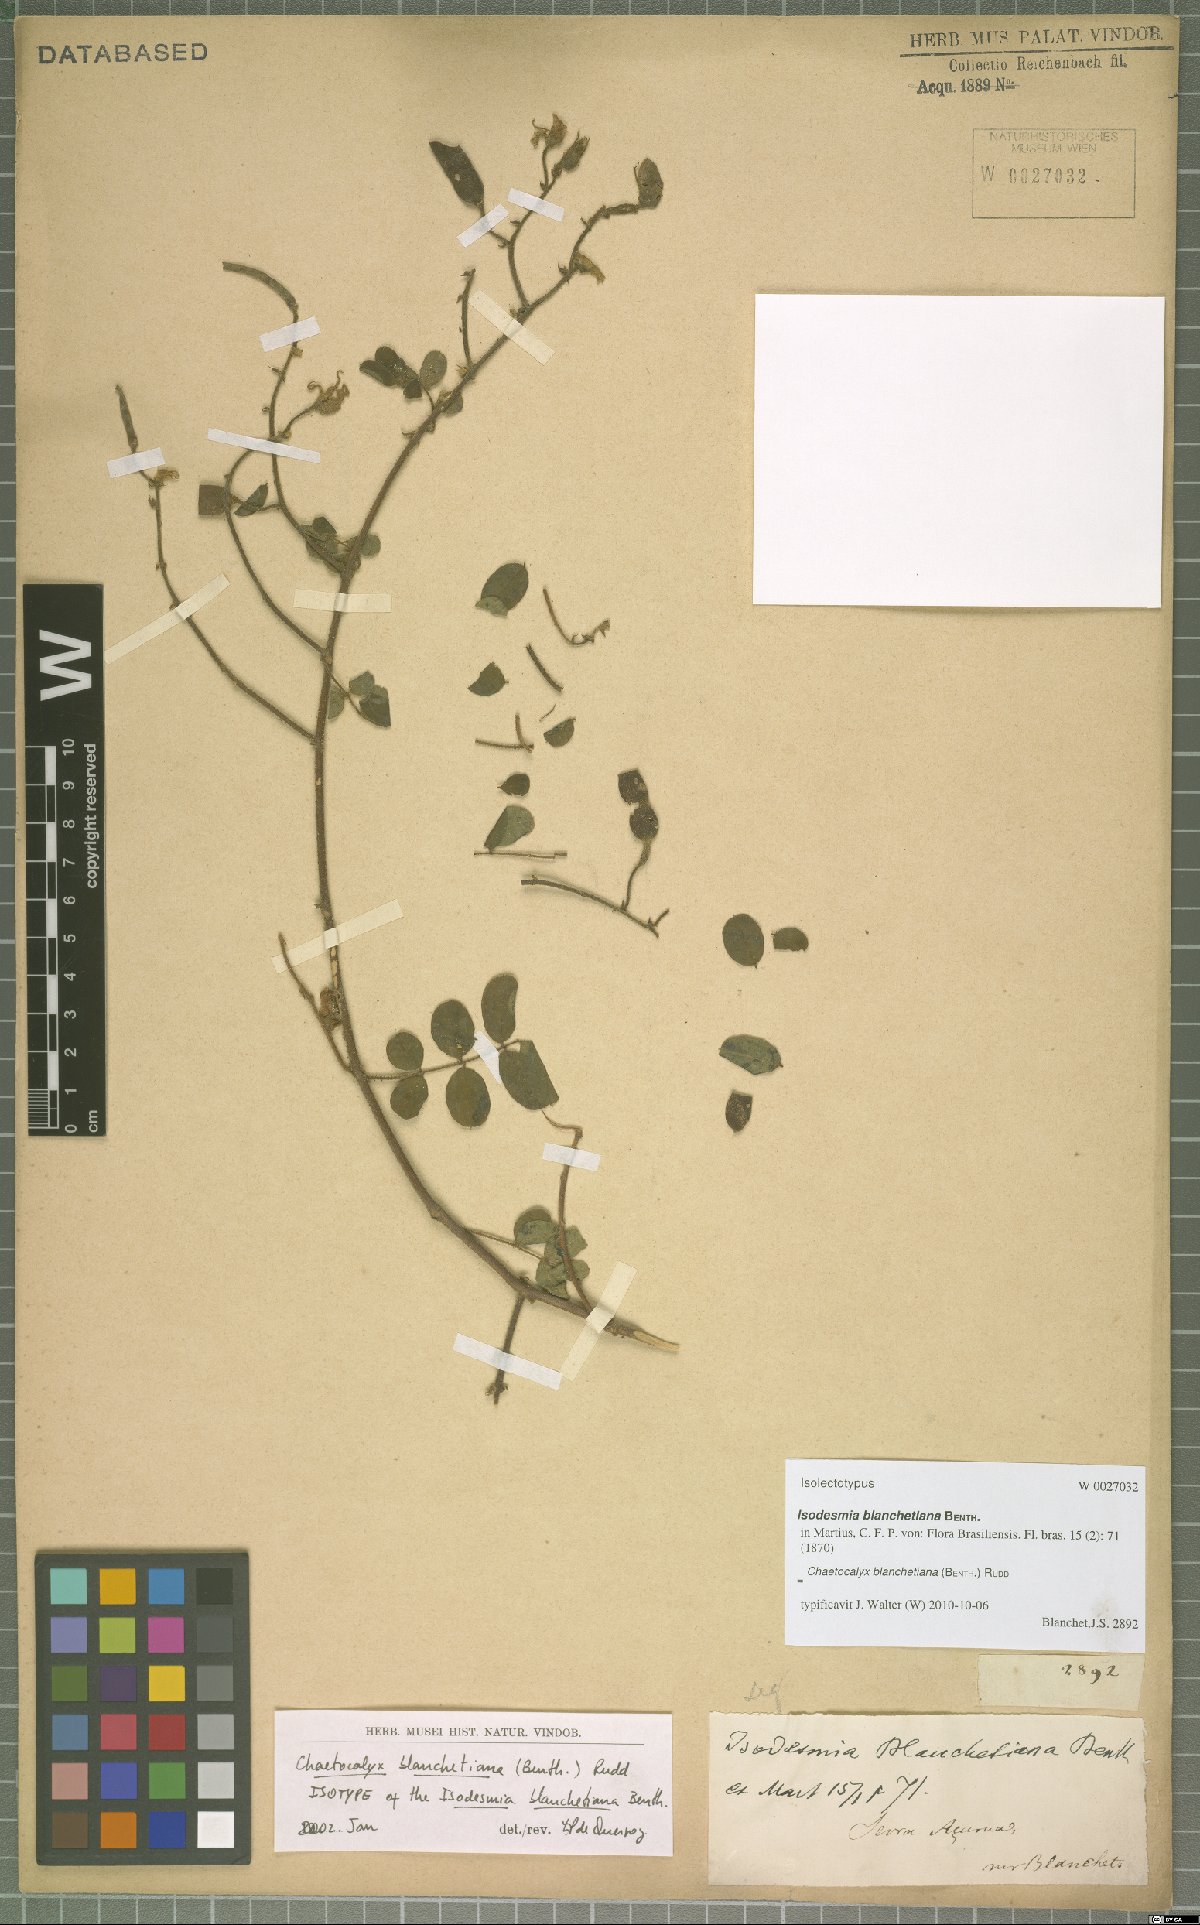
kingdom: Plantae
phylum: Tracheophyta
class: Magnoliopsida
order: Fabales
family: Fabaceae
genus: Nissolia
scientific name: Nissolia blanchetiana
